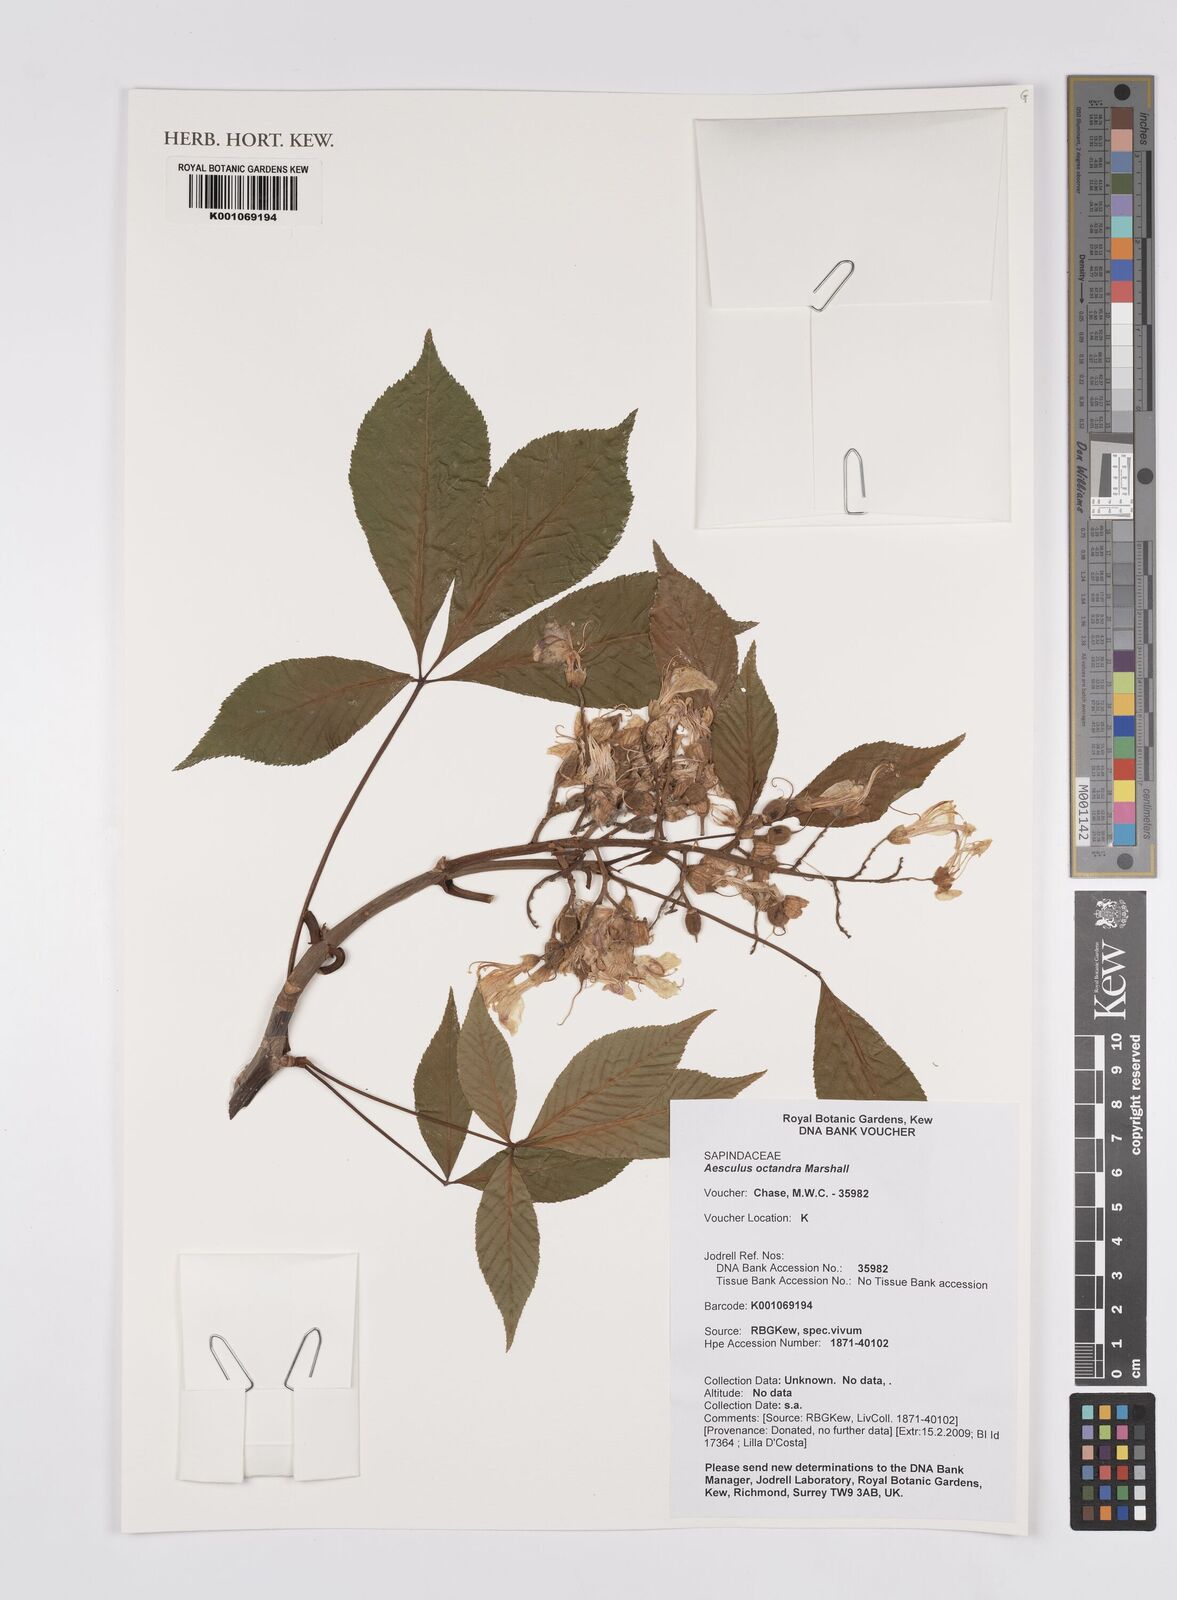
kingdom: Plantae
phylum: Tracheophyta
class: Magnoliopsida
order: Sapindales
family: Sapindaceae
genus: Aesculus
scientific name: Aesculus flava
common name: Yellow buckeye
